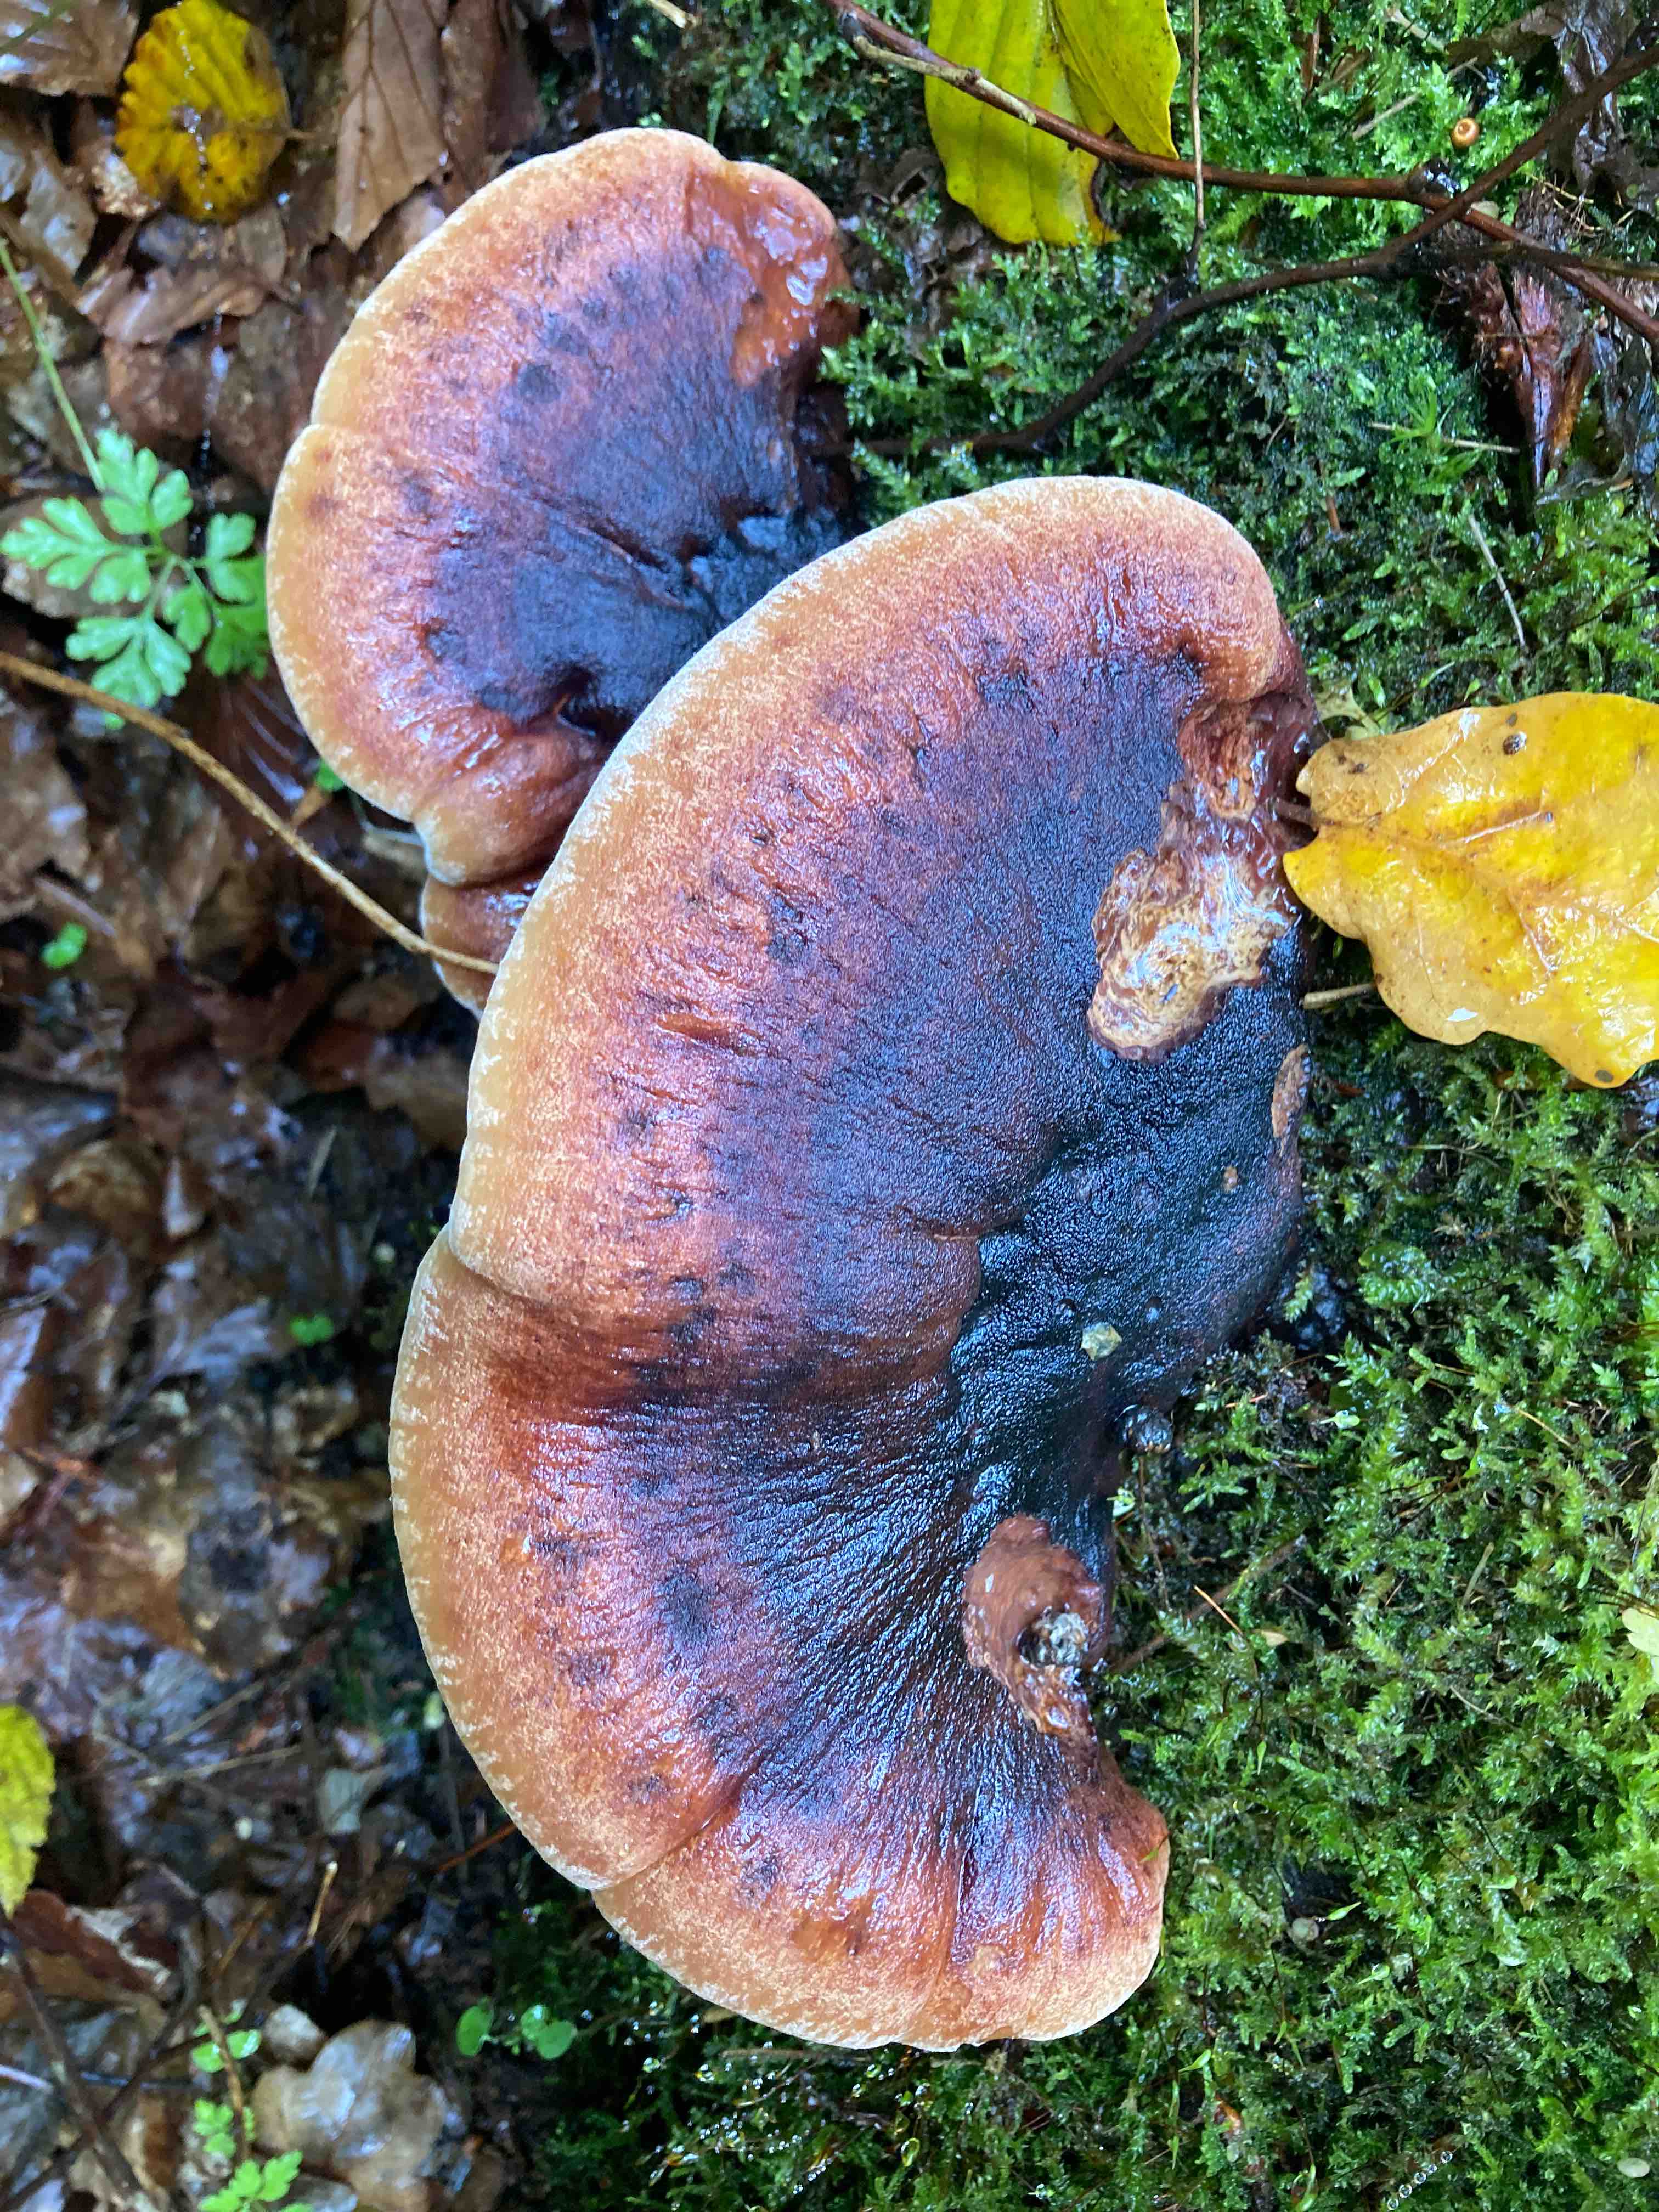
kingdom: Fungi
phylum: Basidiomycota
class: Agaricomycetes
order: Polyporales
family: Ischnodermataceae
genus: Ischnoderma
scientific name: Ischnoderma resinosum
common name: løv-tjæreporesvamp
